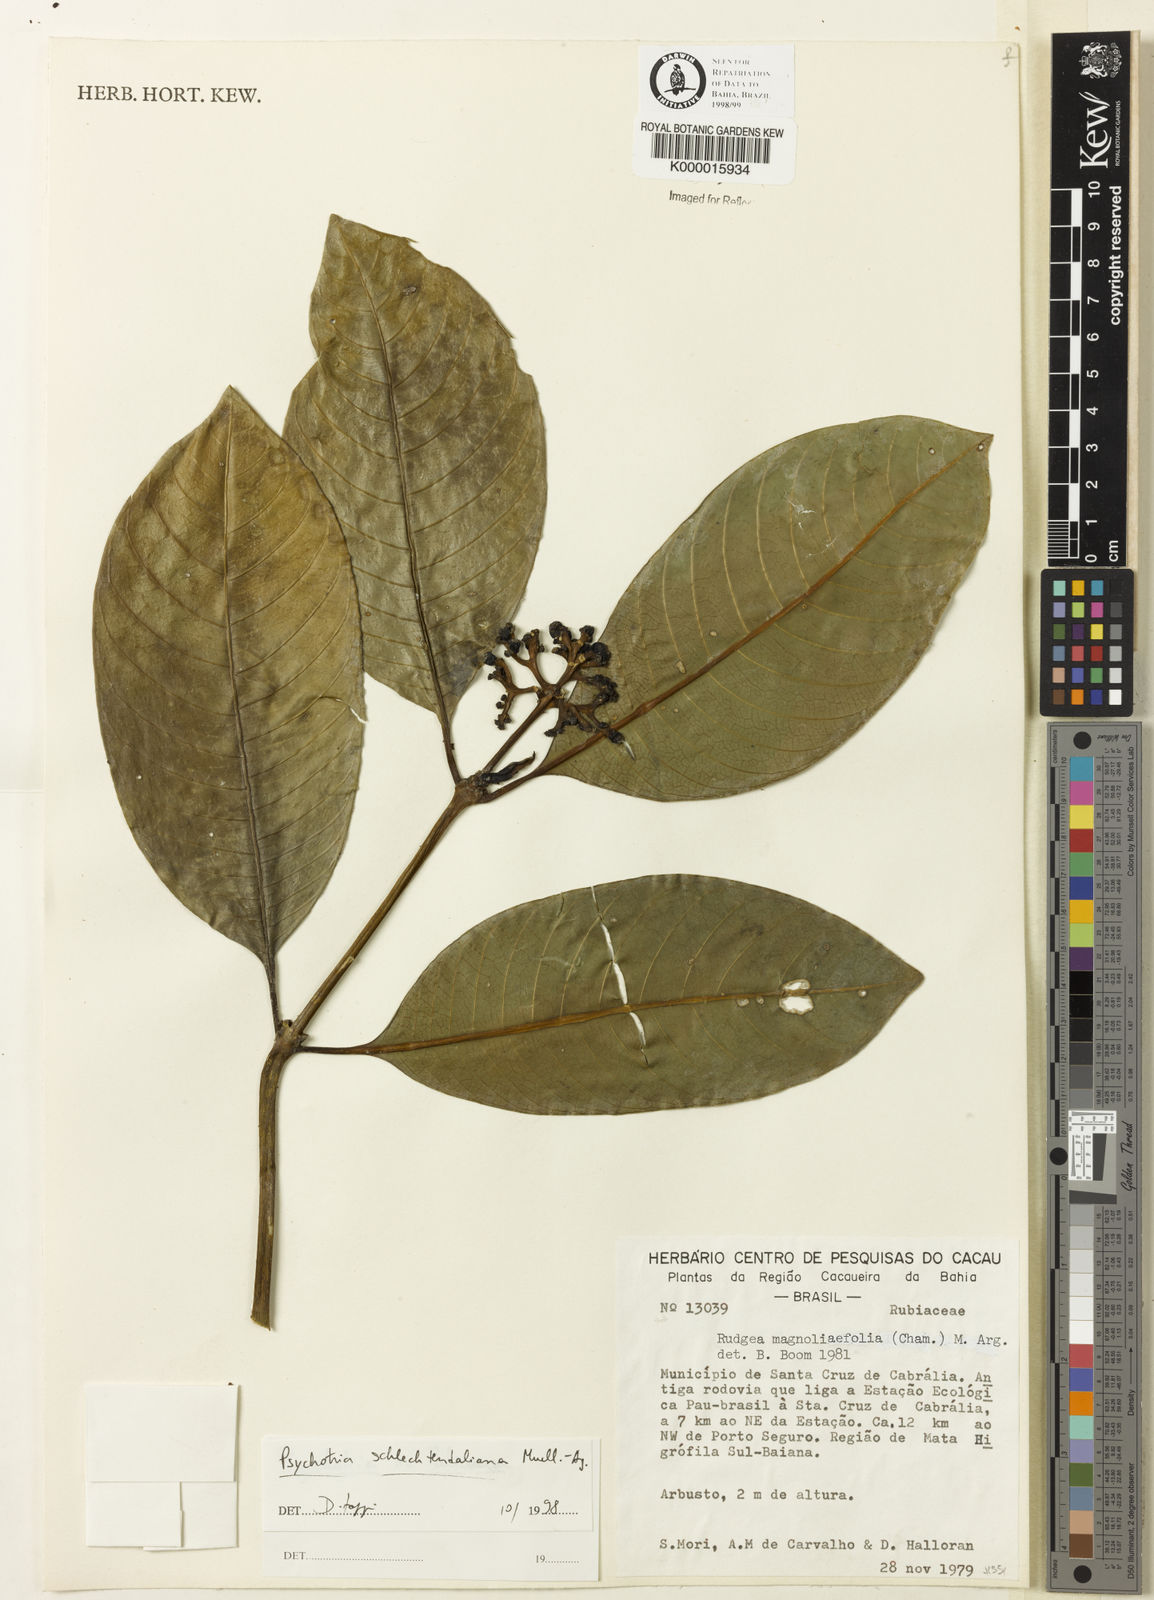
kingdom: Plantae
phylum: Tracheophyta
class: Magnoliopsida
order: Gentianales
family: Rubiaceae
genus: Palicourea
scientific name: Palicourea
